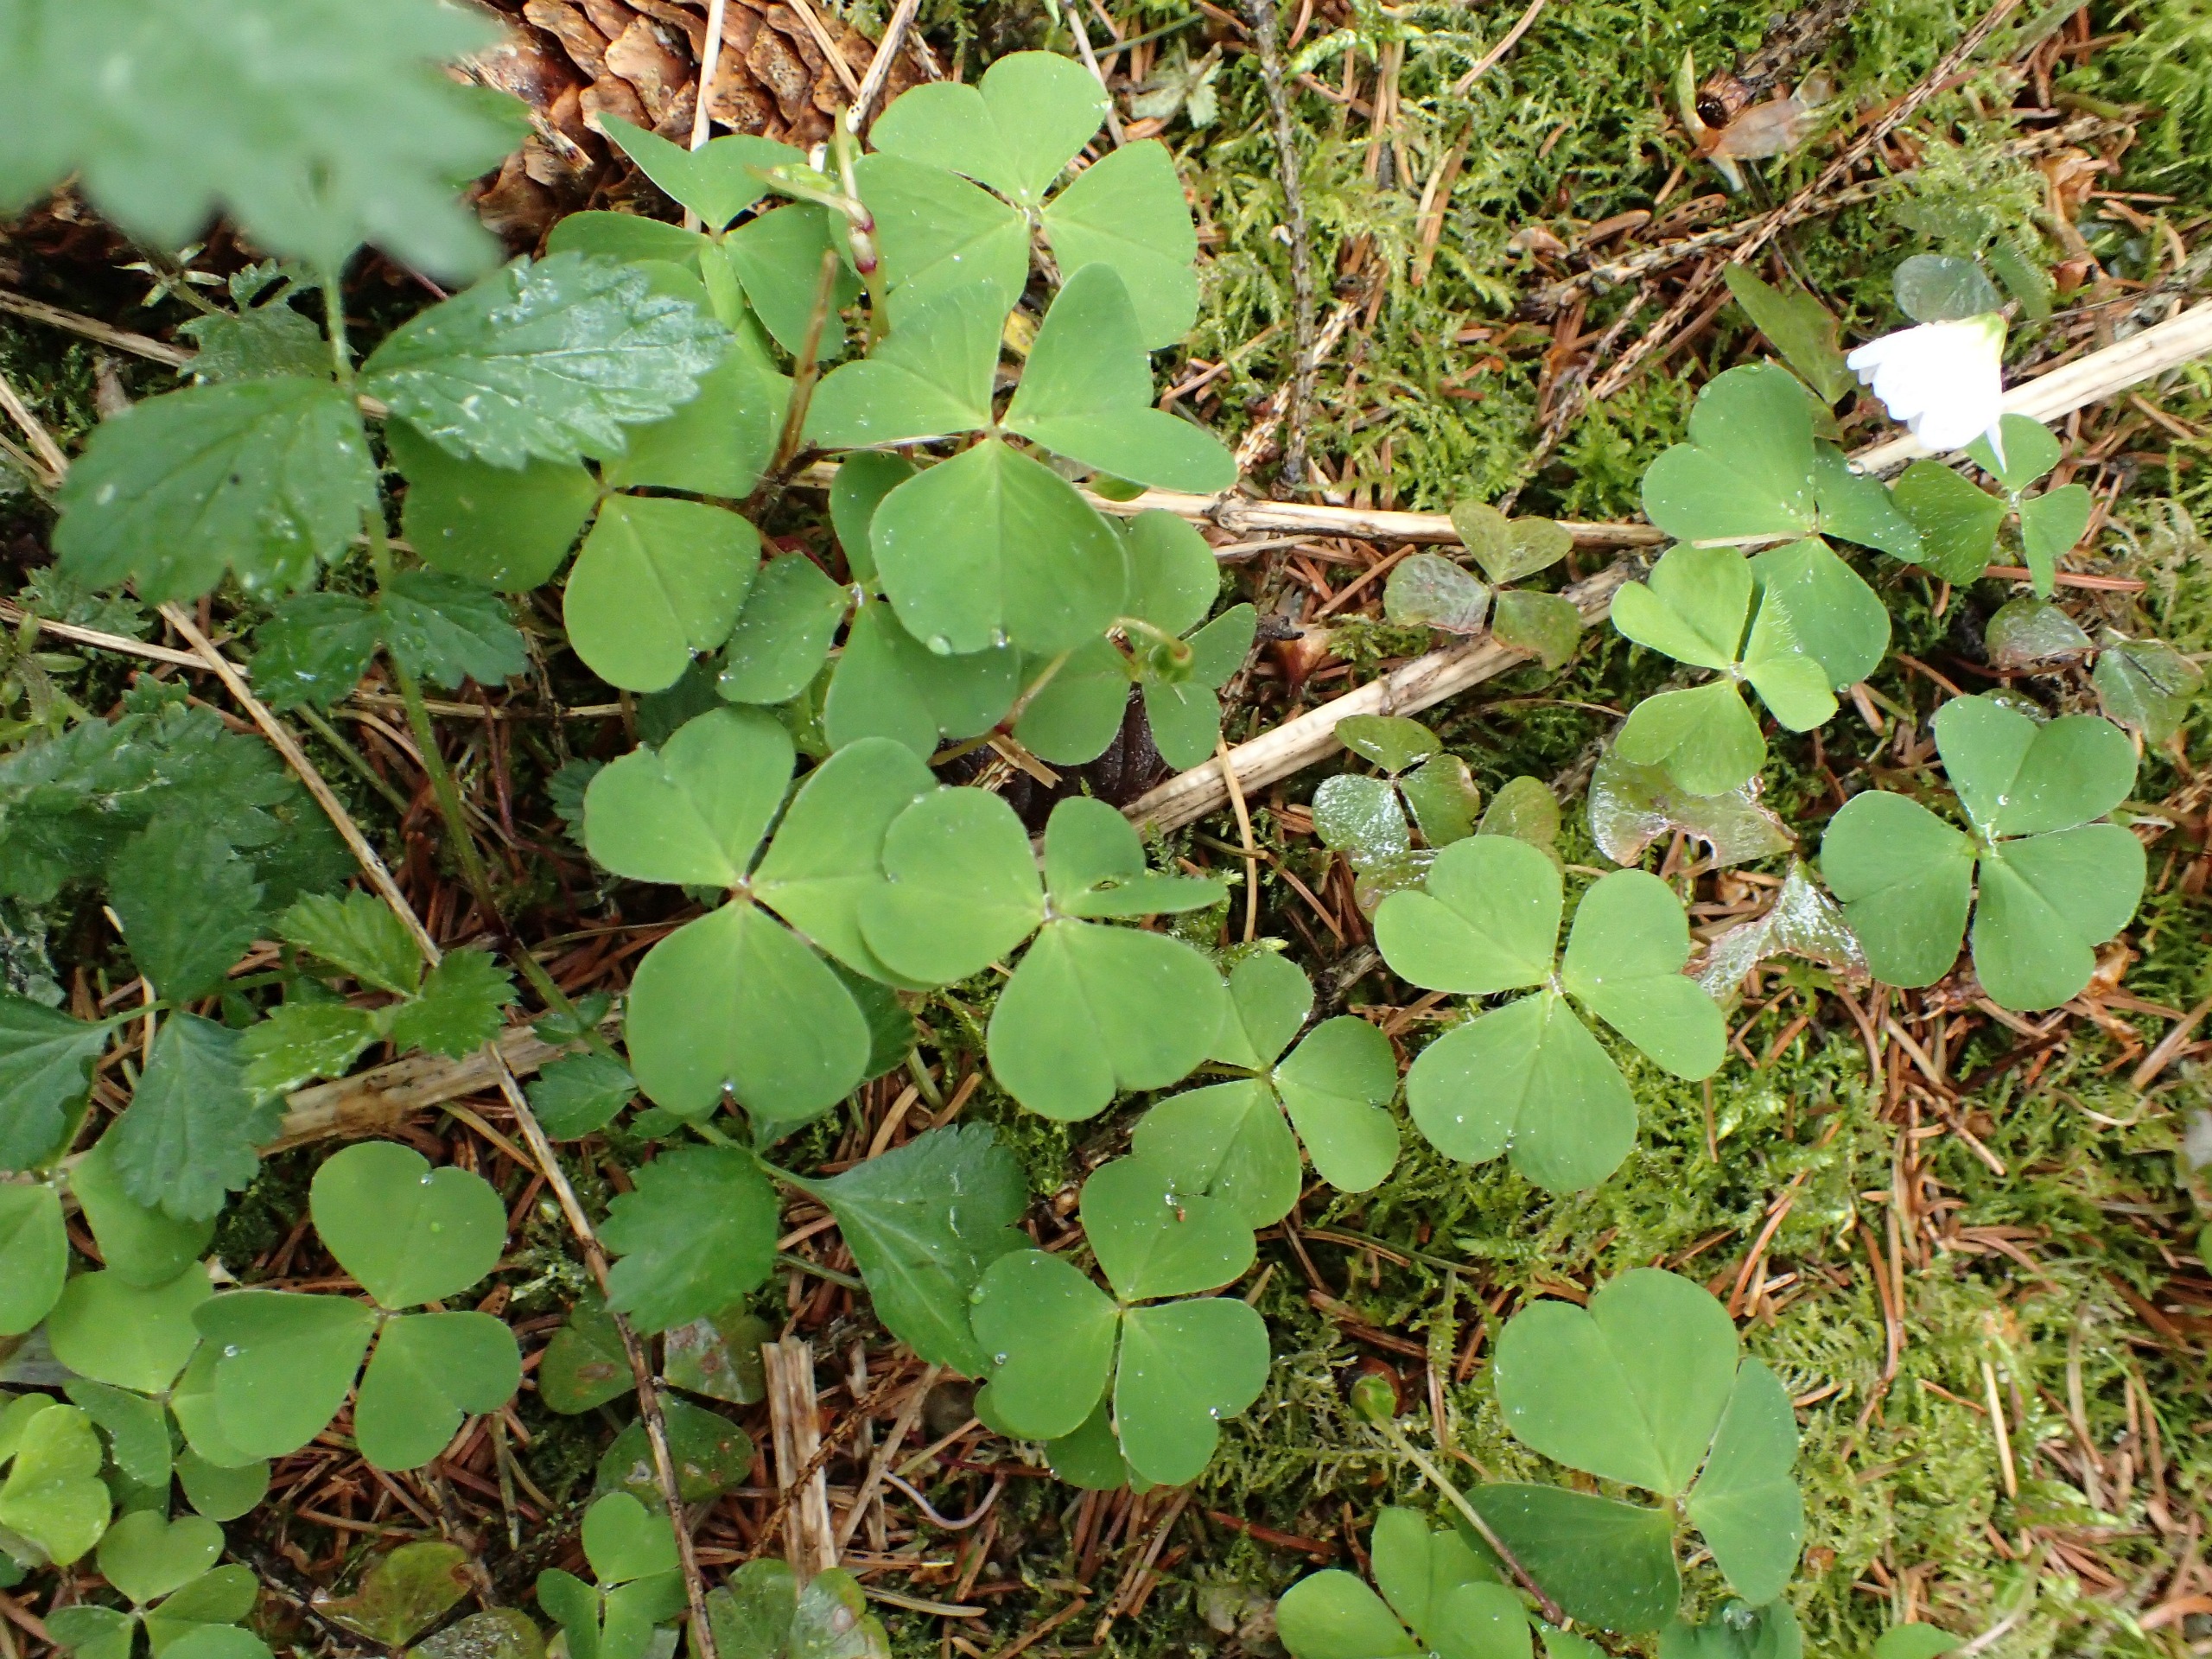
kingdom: Plantae
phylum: Tracheophyta
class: Magnoliopsida
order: Oxalidales
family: Oxalidaceae
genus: Oxalis
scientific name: Oxalis acetosella
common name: Skovsyre
